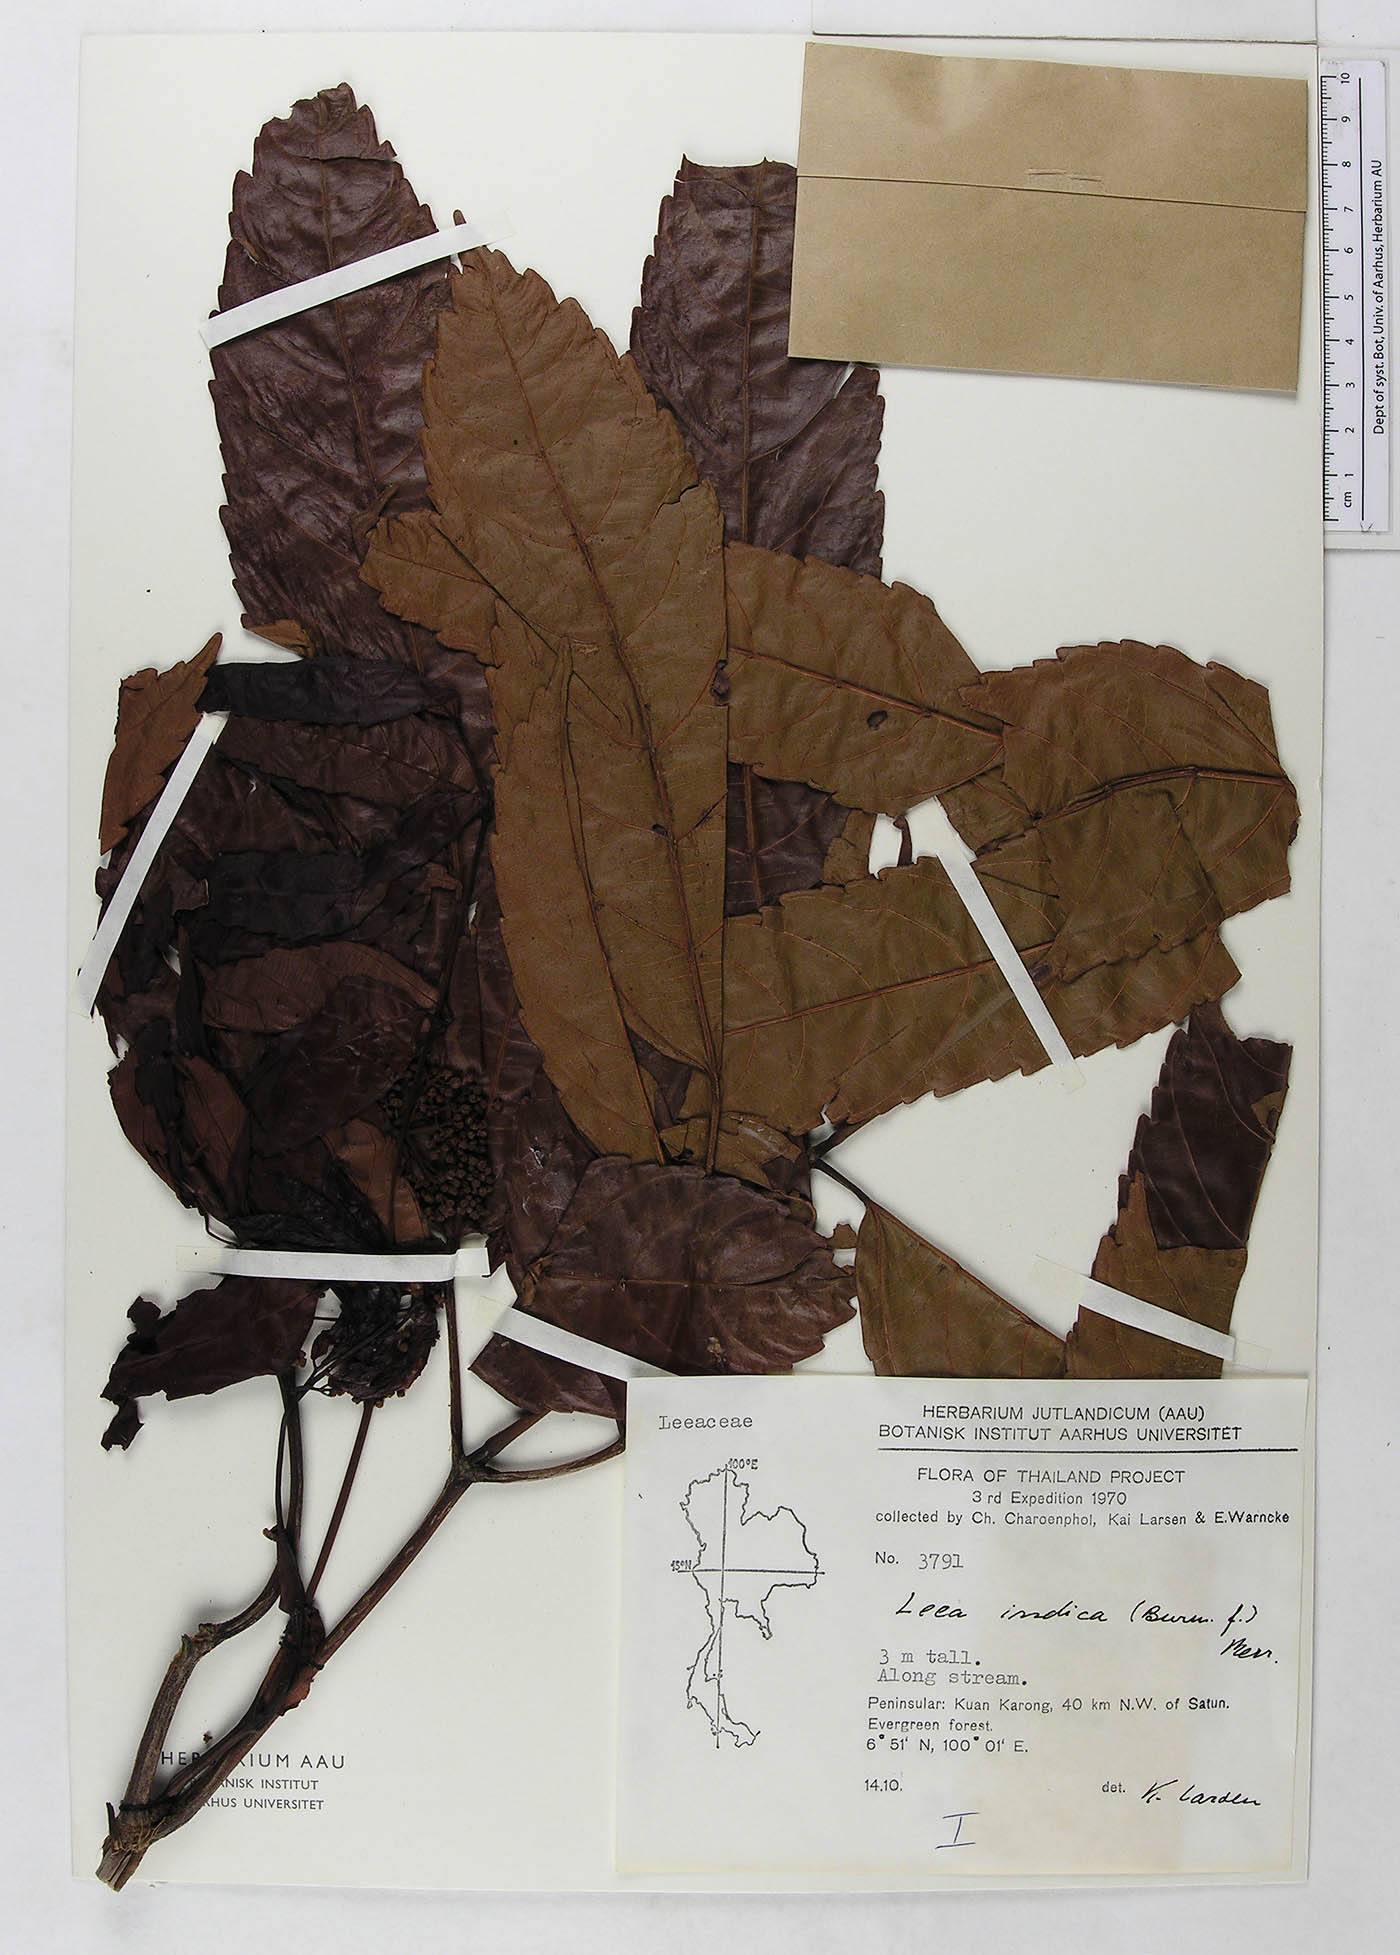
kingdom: Plantae
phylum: Tracheophyta
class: Magnoliopsida
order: Vitales
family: Vitaceae
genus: Leea
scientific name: Leea indica
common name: Bandicoot-berry
